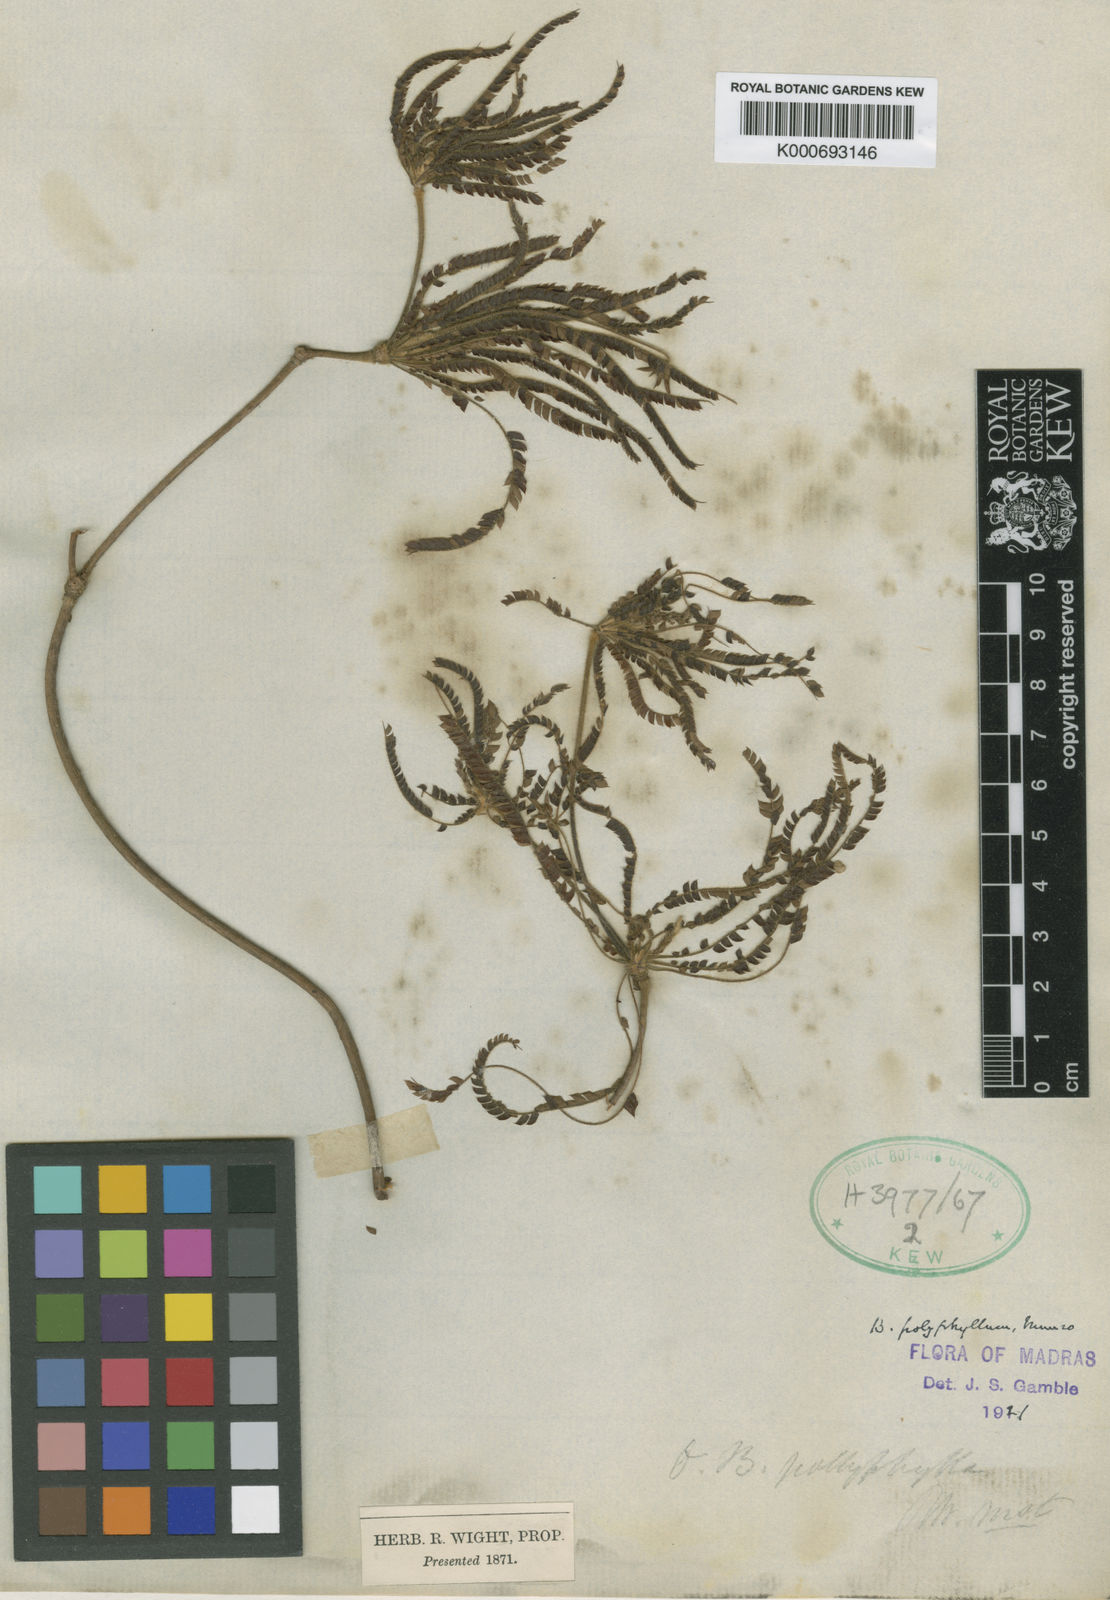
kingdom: Plantae
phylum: Tracheophyta
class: Magnoliopsida
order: Oxalidales
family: Oxalidaceae
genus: Biophytum
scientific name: Biophytum polyphyllum
